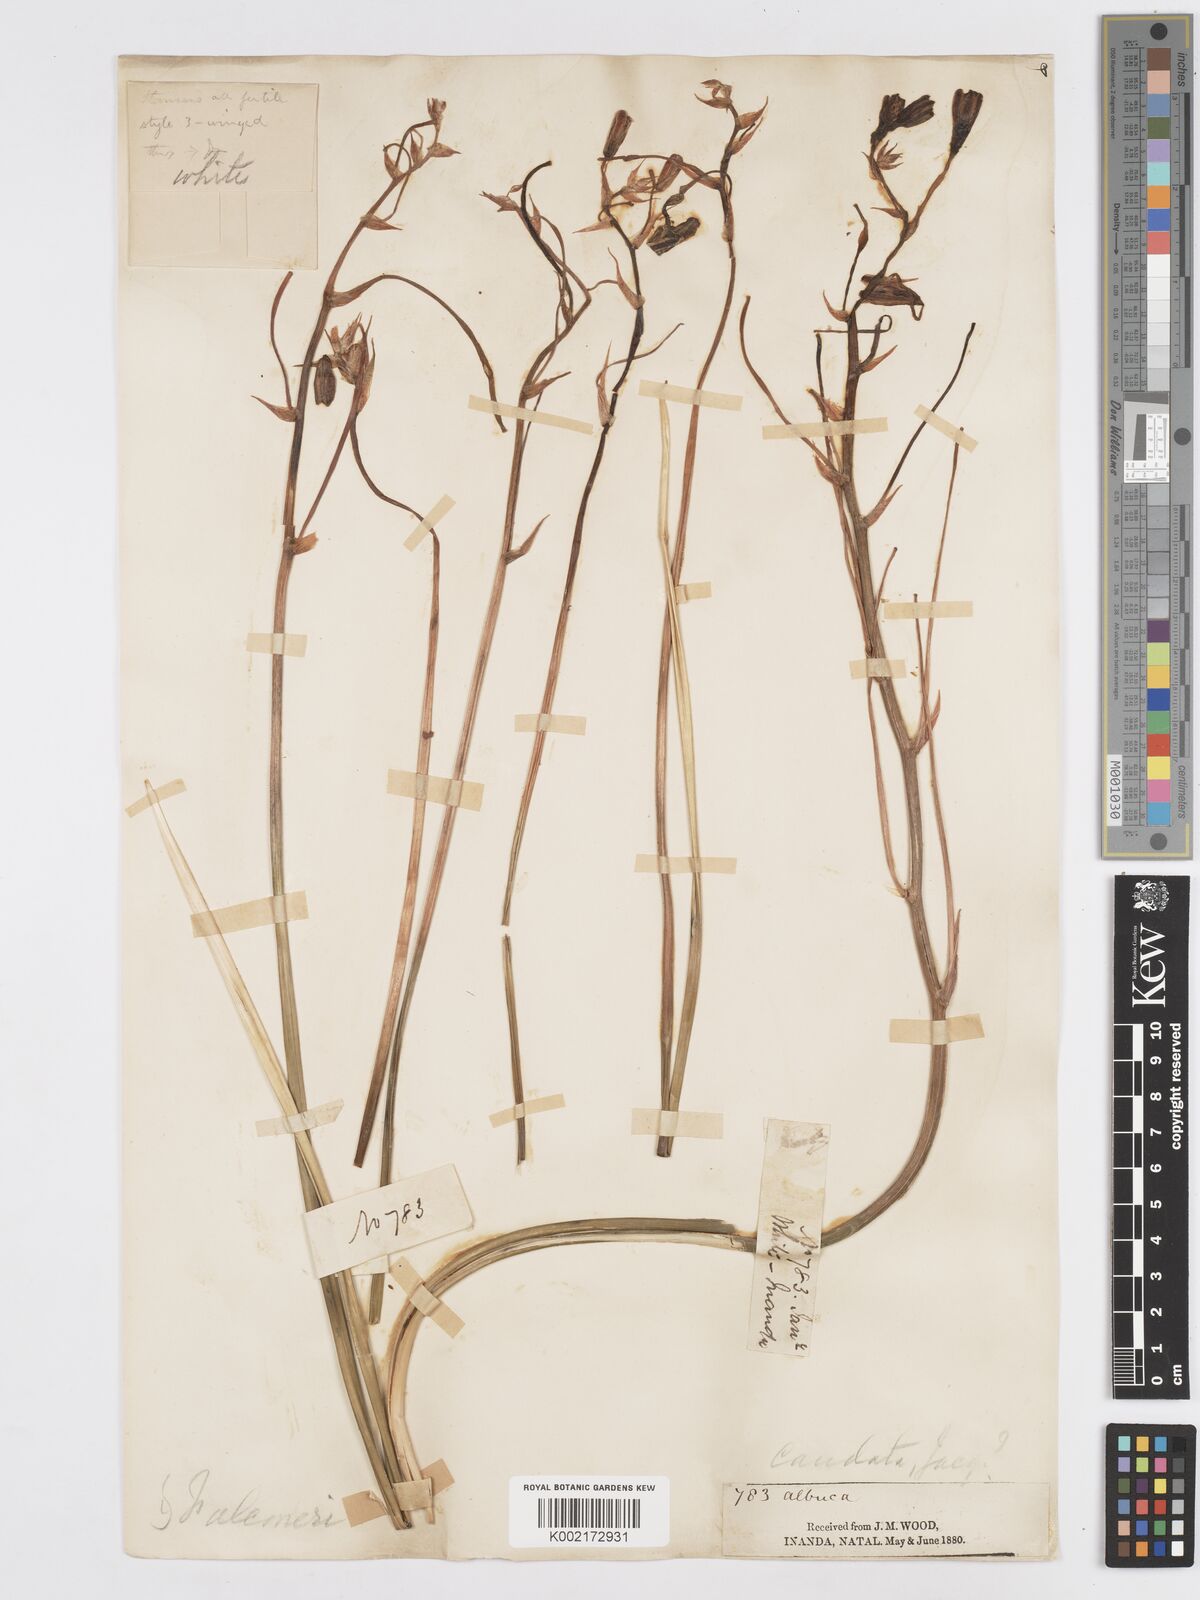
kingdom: Plantae
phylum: Tracheophyta
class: Liliopsida
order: Asparagales
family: Asparagaceae
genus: Albuca
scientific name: Albuca caudata
